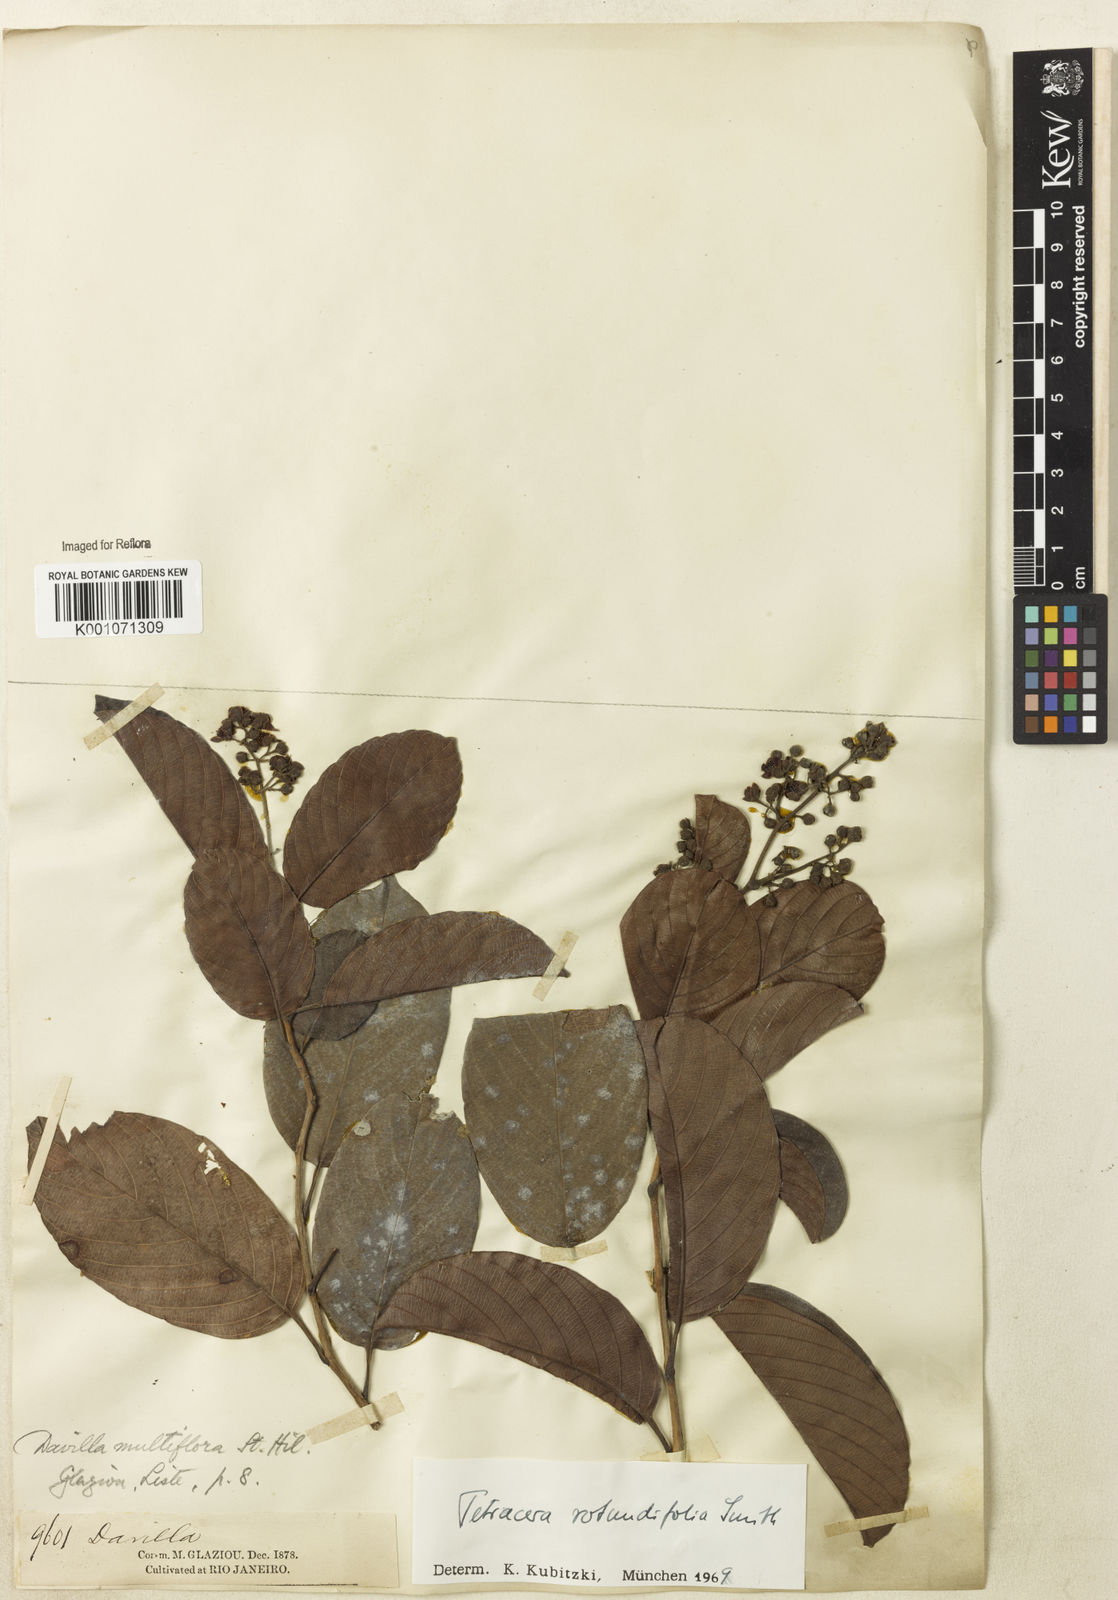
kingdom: Plantae
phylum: Tracheophyta
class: Magnoliopsida
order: Dilleniales
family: Dilleniaceae
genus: Tetracera
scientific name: Tetracera rotundifolia
